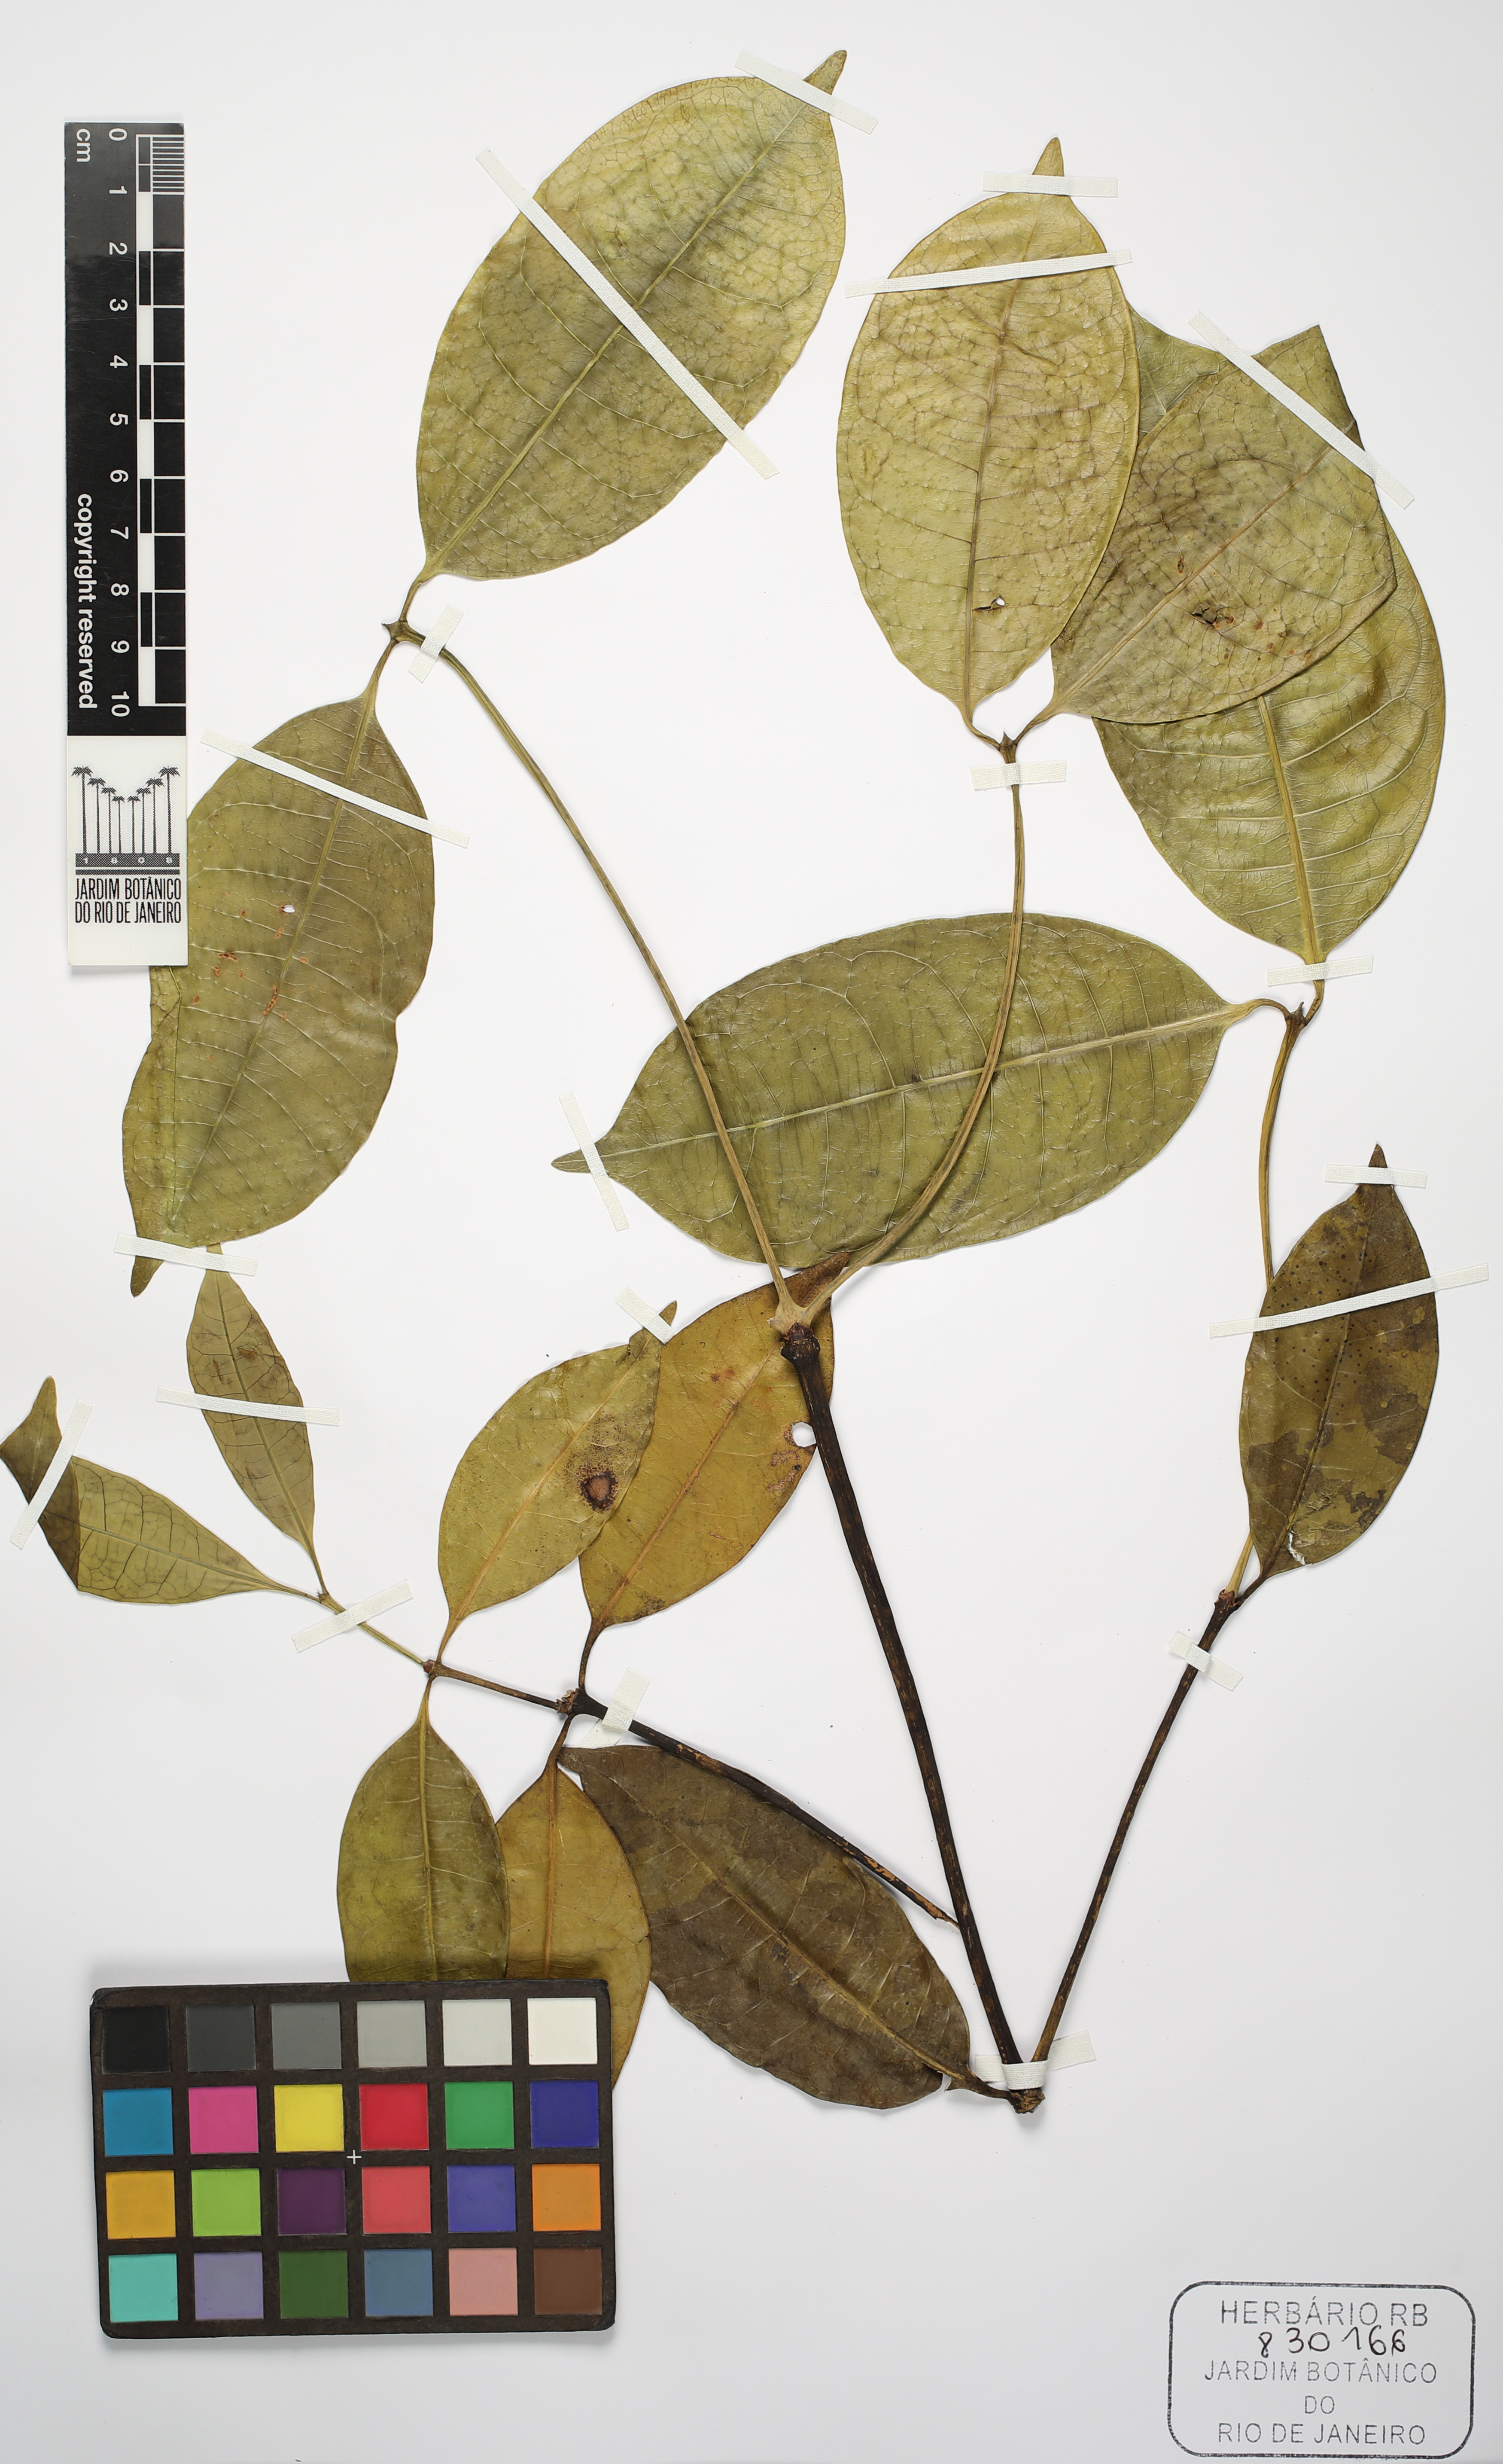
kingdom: Plantae
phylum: Tracheophyta
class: Magnoliopsida
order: Gentianales
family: Rubiaceae
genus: Faramea
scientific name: Faramea
